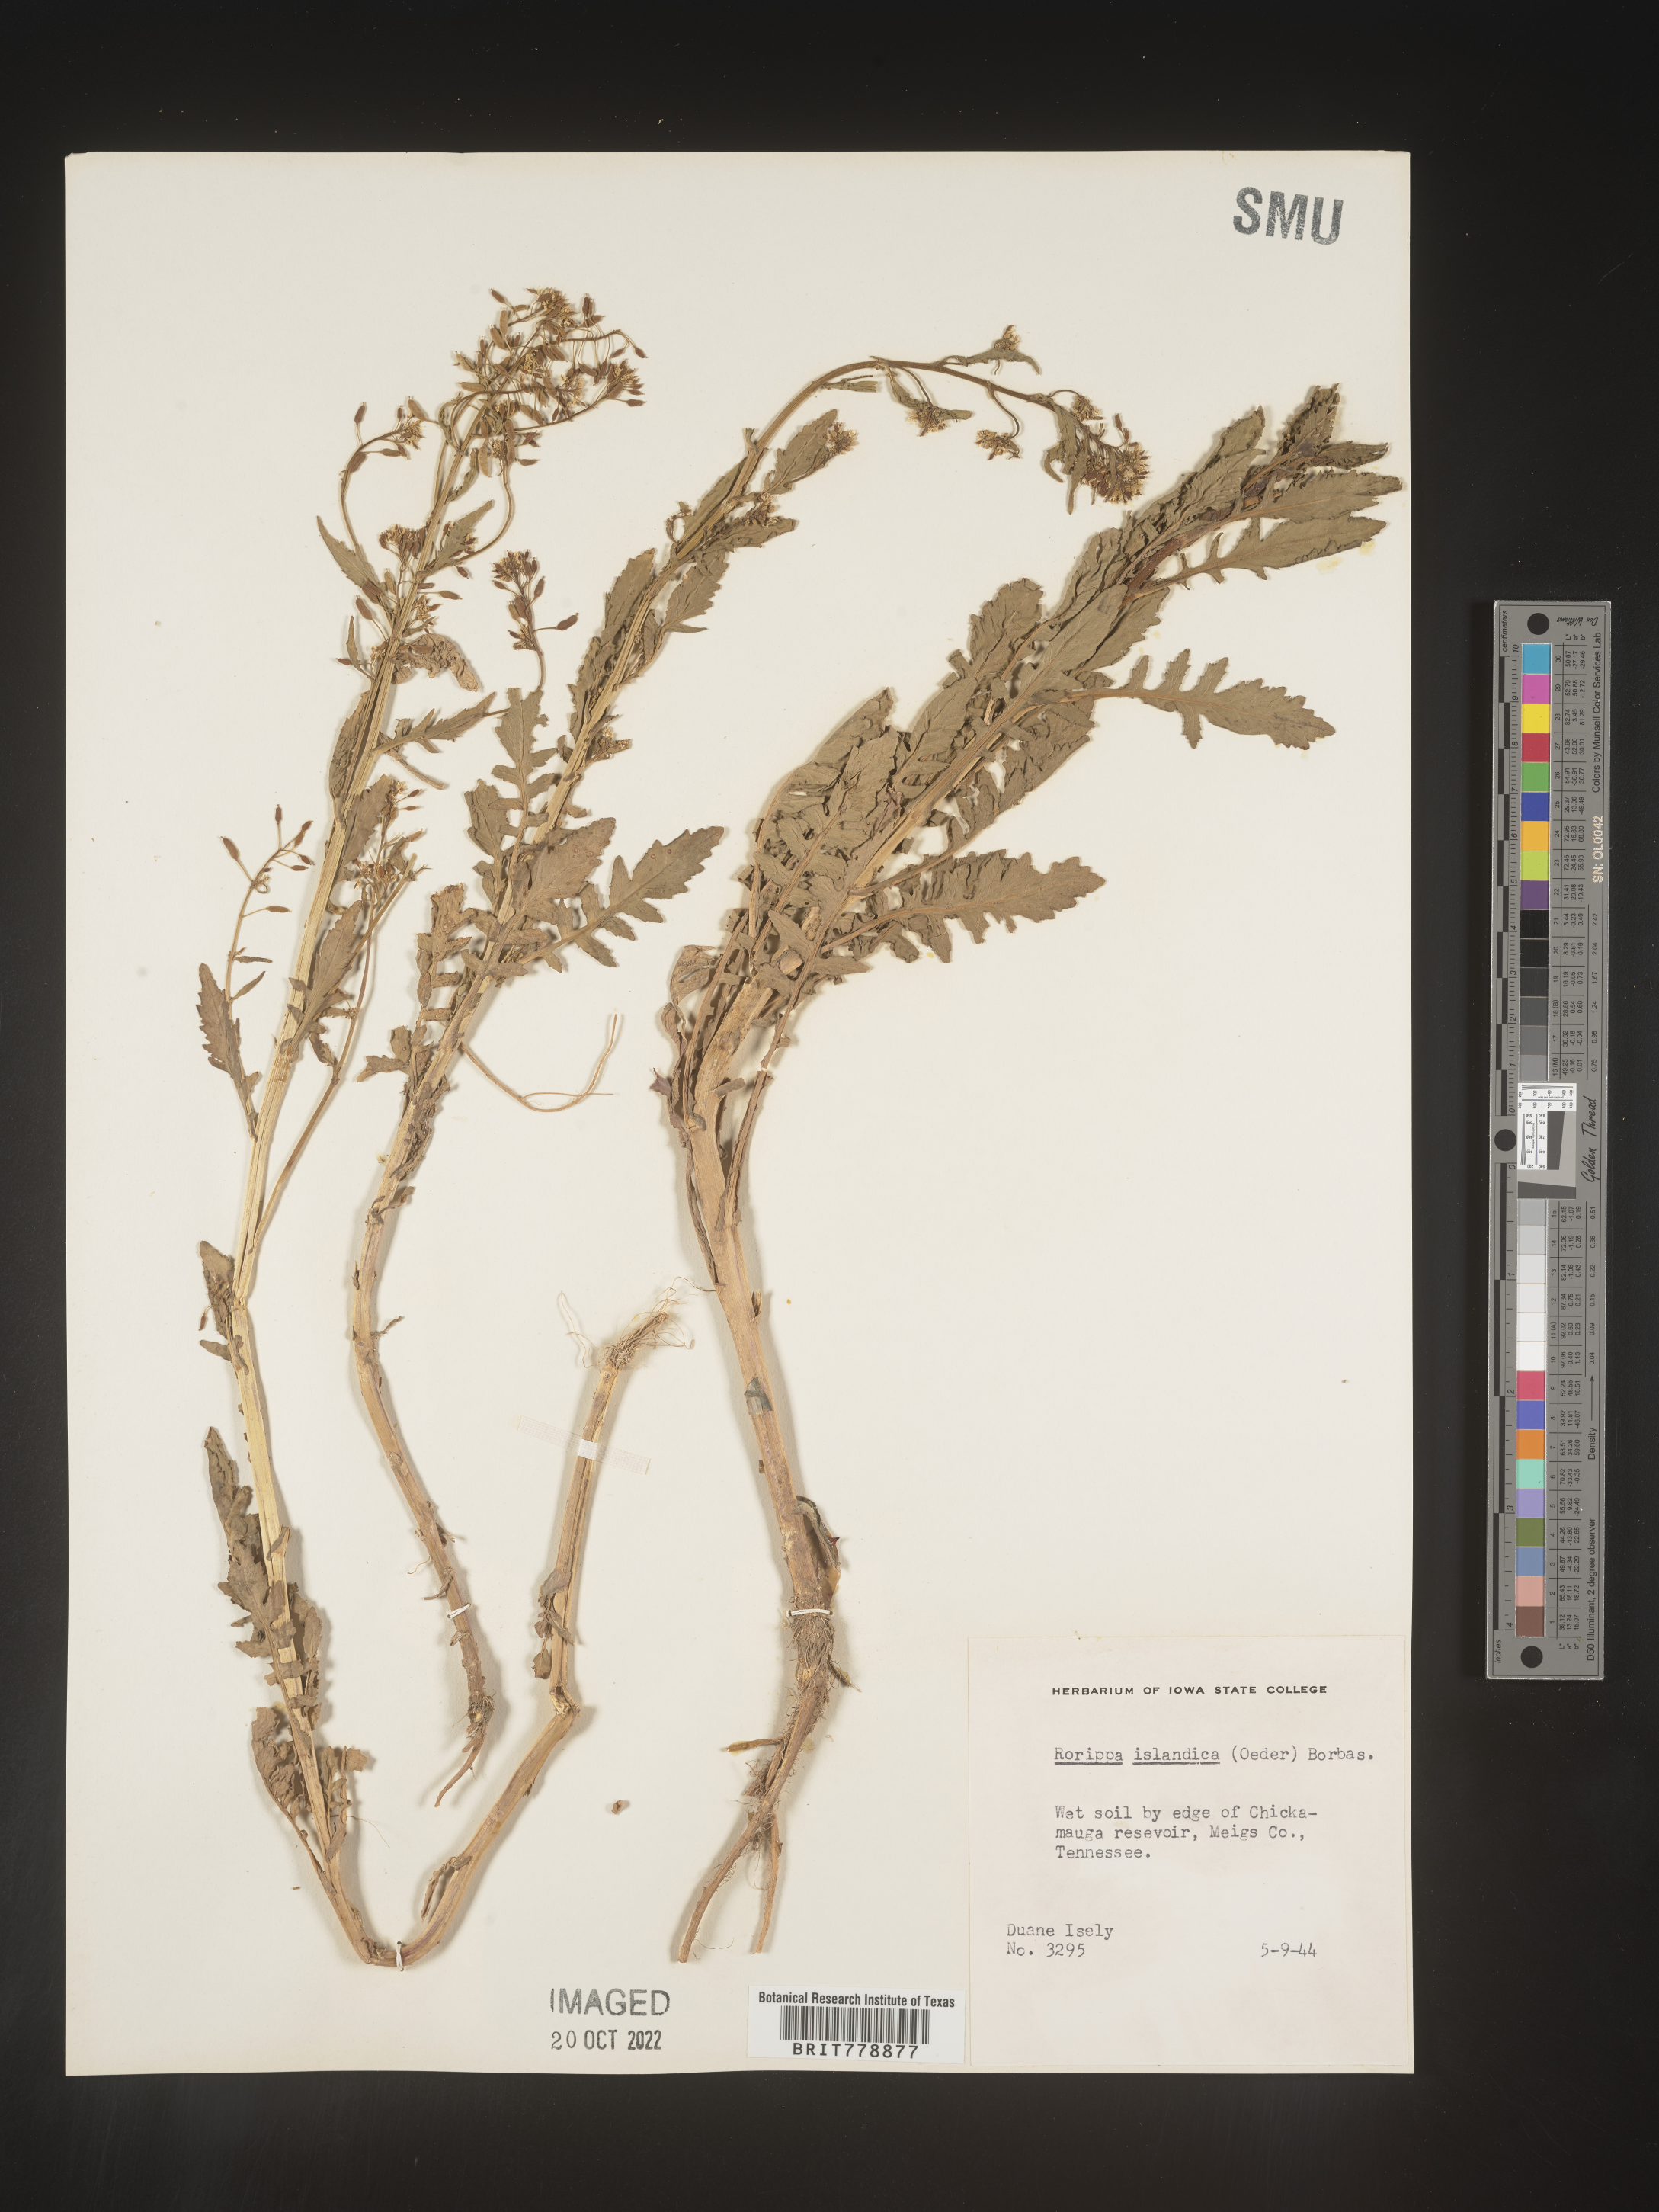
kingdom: Plantae
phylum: Tracheophyta
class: Magnoliopsida
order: Brassicales
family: Brassicaceae
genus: Rorippa
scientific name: Rorippa palustris
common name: Marsh yellow-cress
